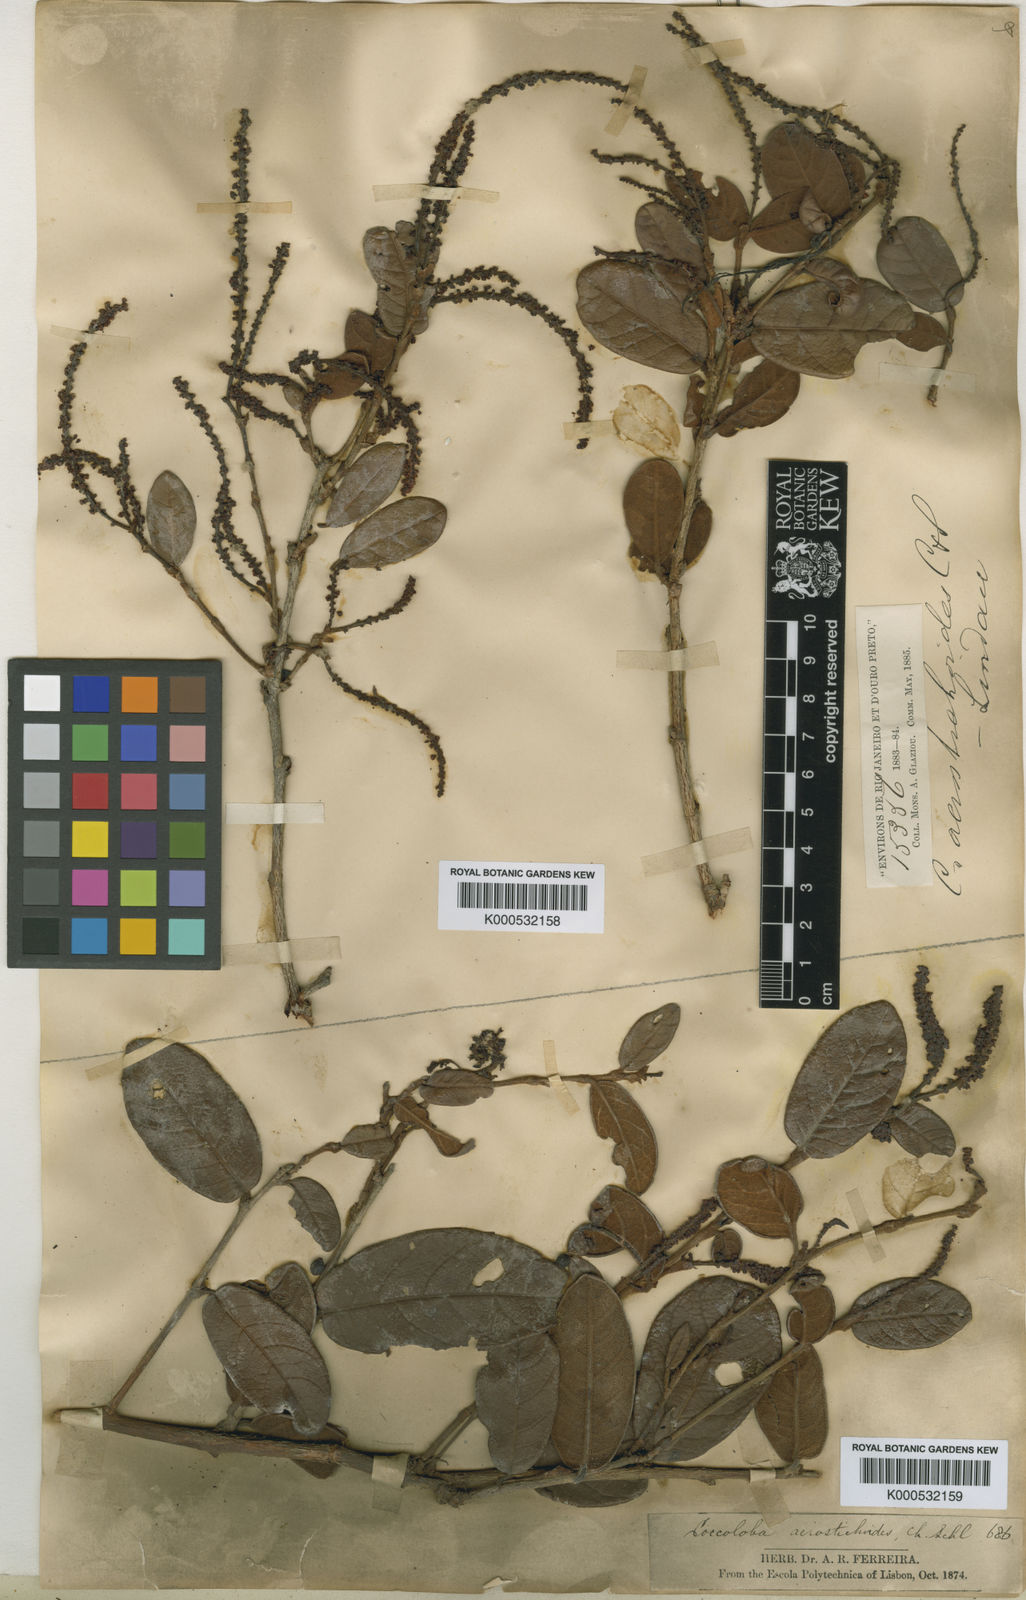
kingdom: Plantae
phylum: Tracheophyta
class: Magnoliopsida
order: Caryophyllales
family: Polygonaceae
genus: Coccoloba
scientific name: Coccoloba acrostichoides
